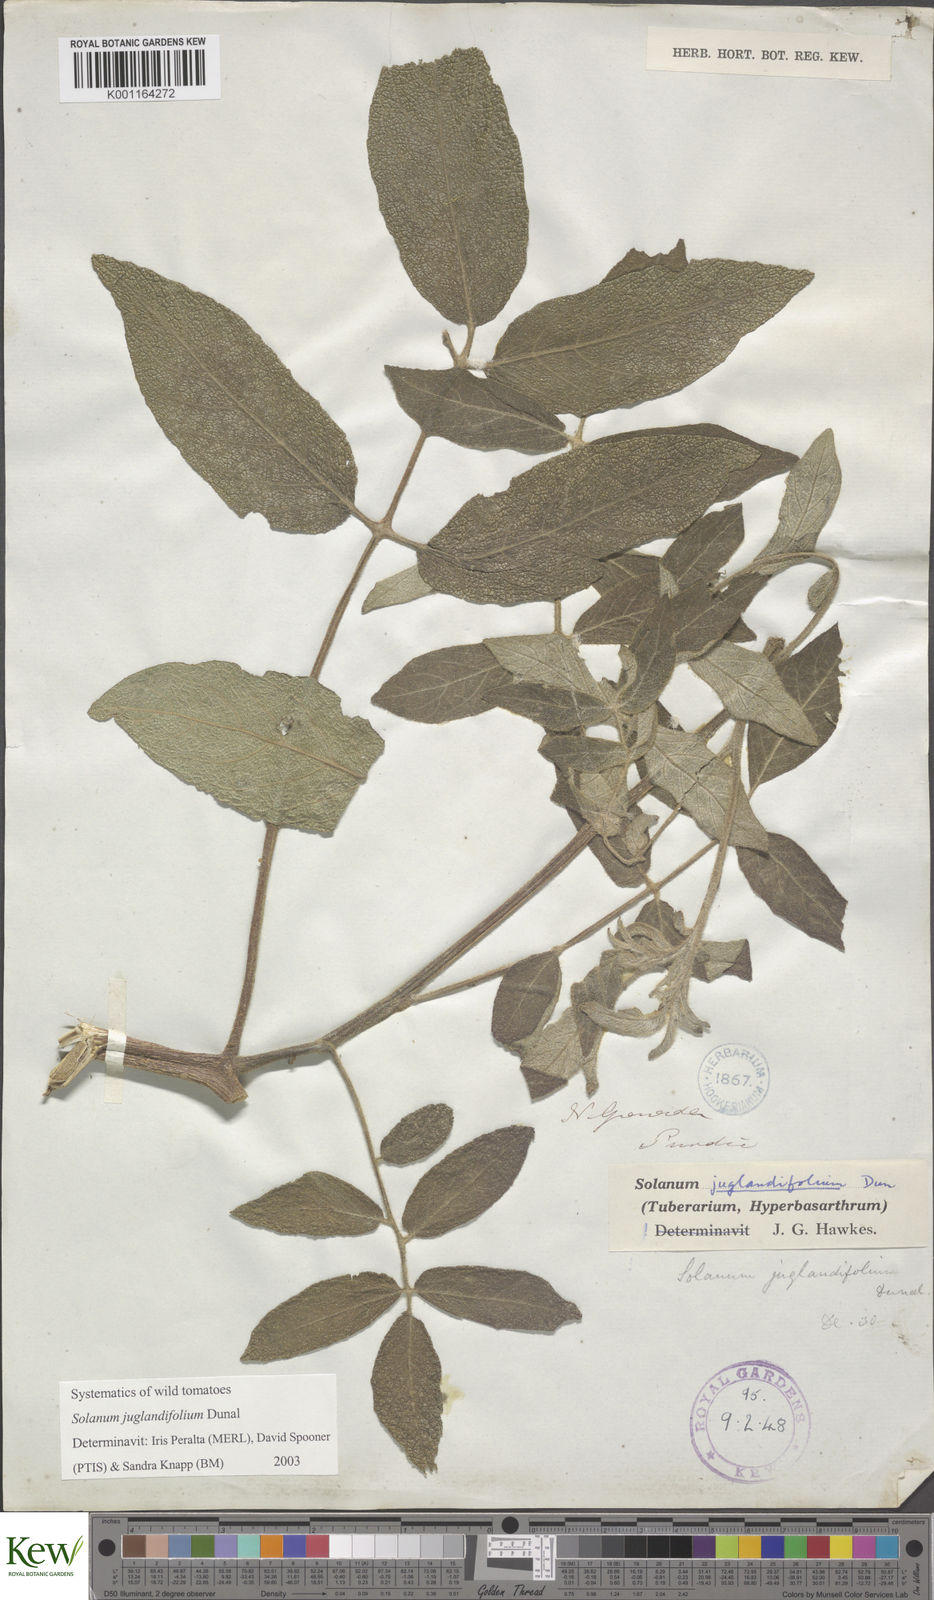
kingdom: Plantae
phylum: Tracheophyta
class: Magnoliopsida
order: Solanales
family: Solanaceae
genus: Solanum
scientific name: Solanum juglandifolium
